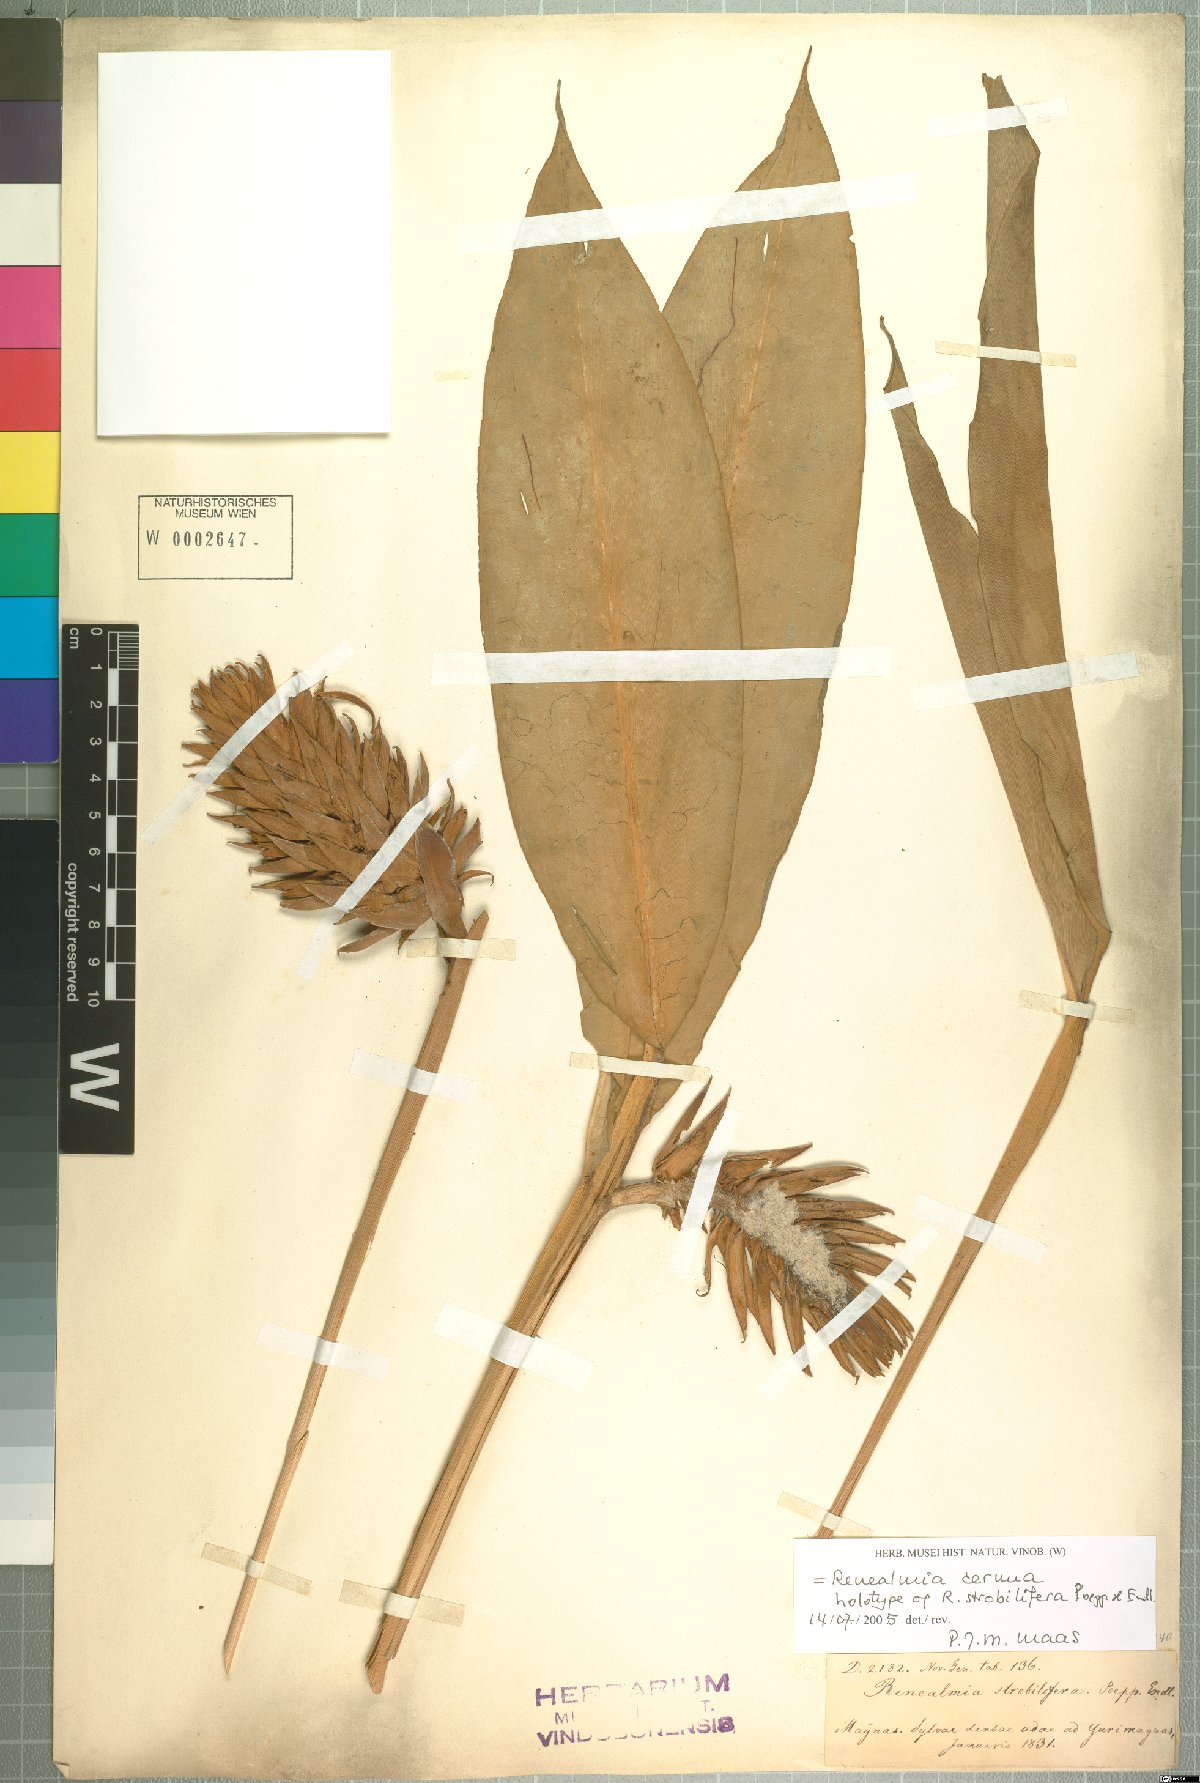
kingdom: Plantae
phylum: Tracheophyta
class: Liliopsida
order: Zingiberales
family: Zingiberaceae
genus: Renealmia
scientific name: Renealmia cernua
